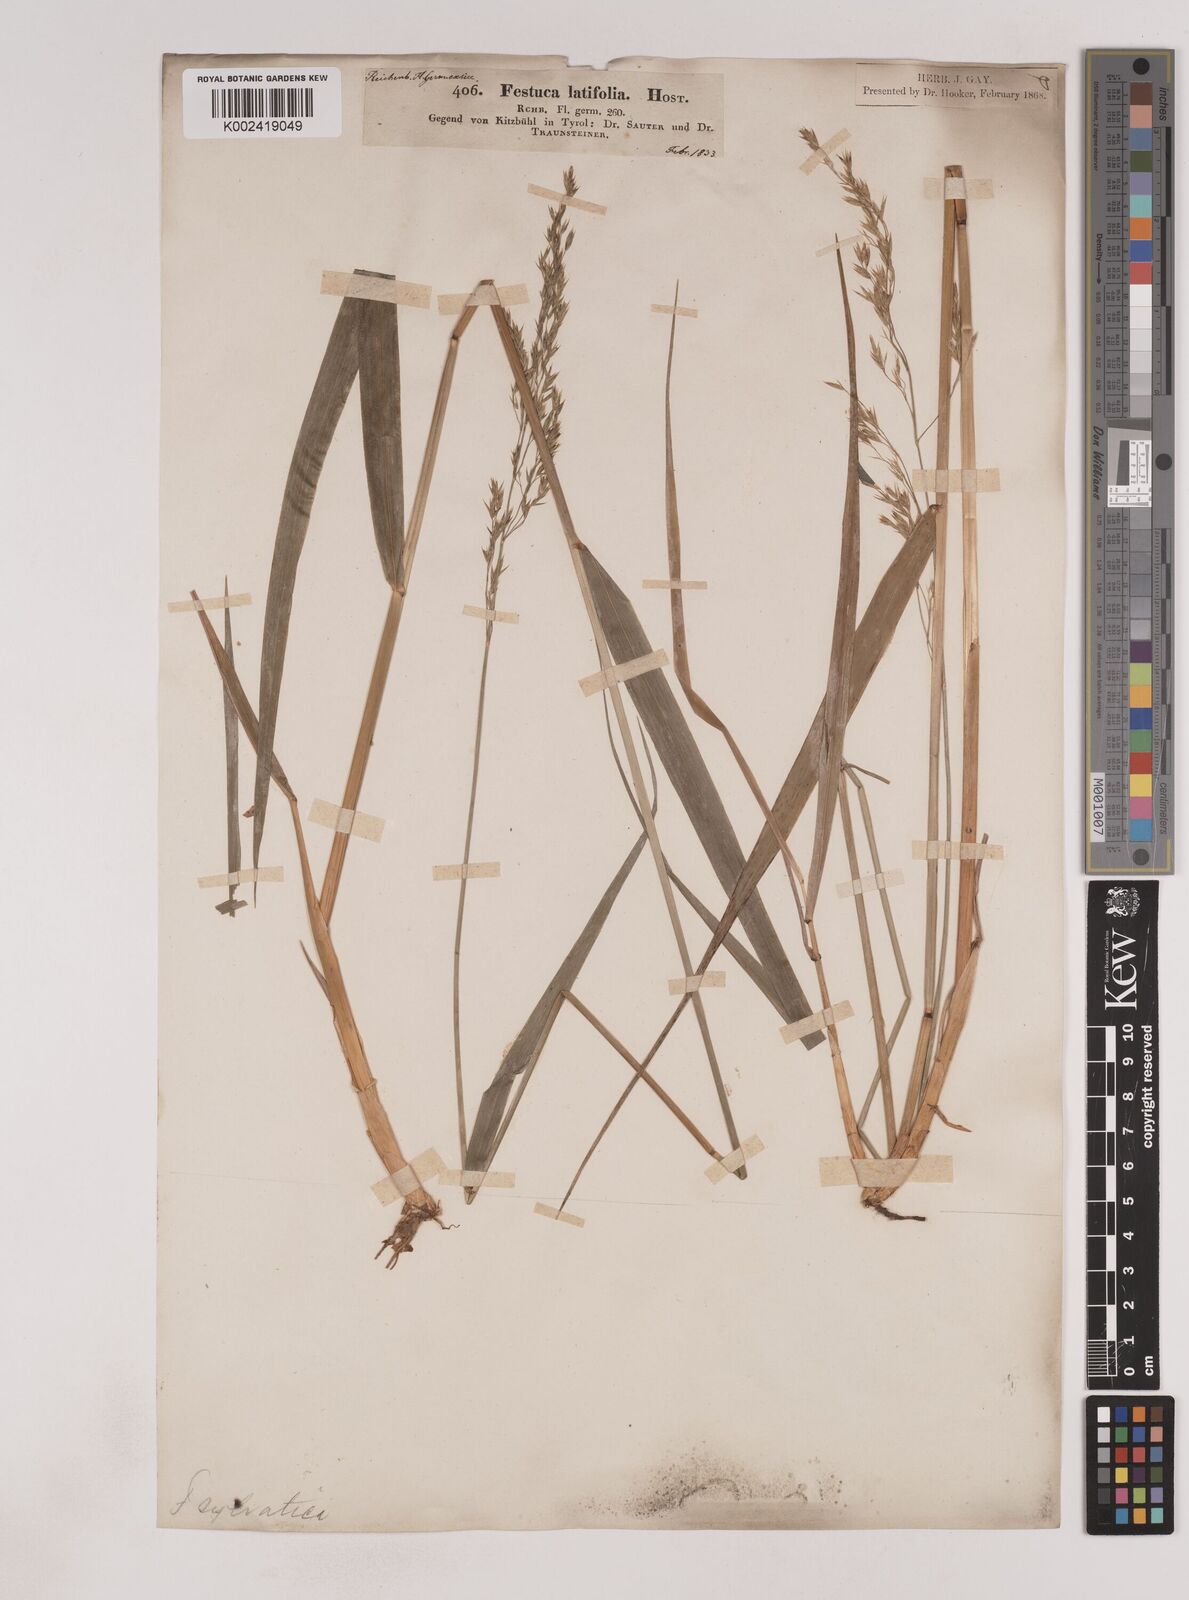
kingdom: Plantae
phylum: Tracheophyta
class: Liliopsida
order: Poales
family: Poaceae
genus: Festuca
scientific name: Festuca drymeja
